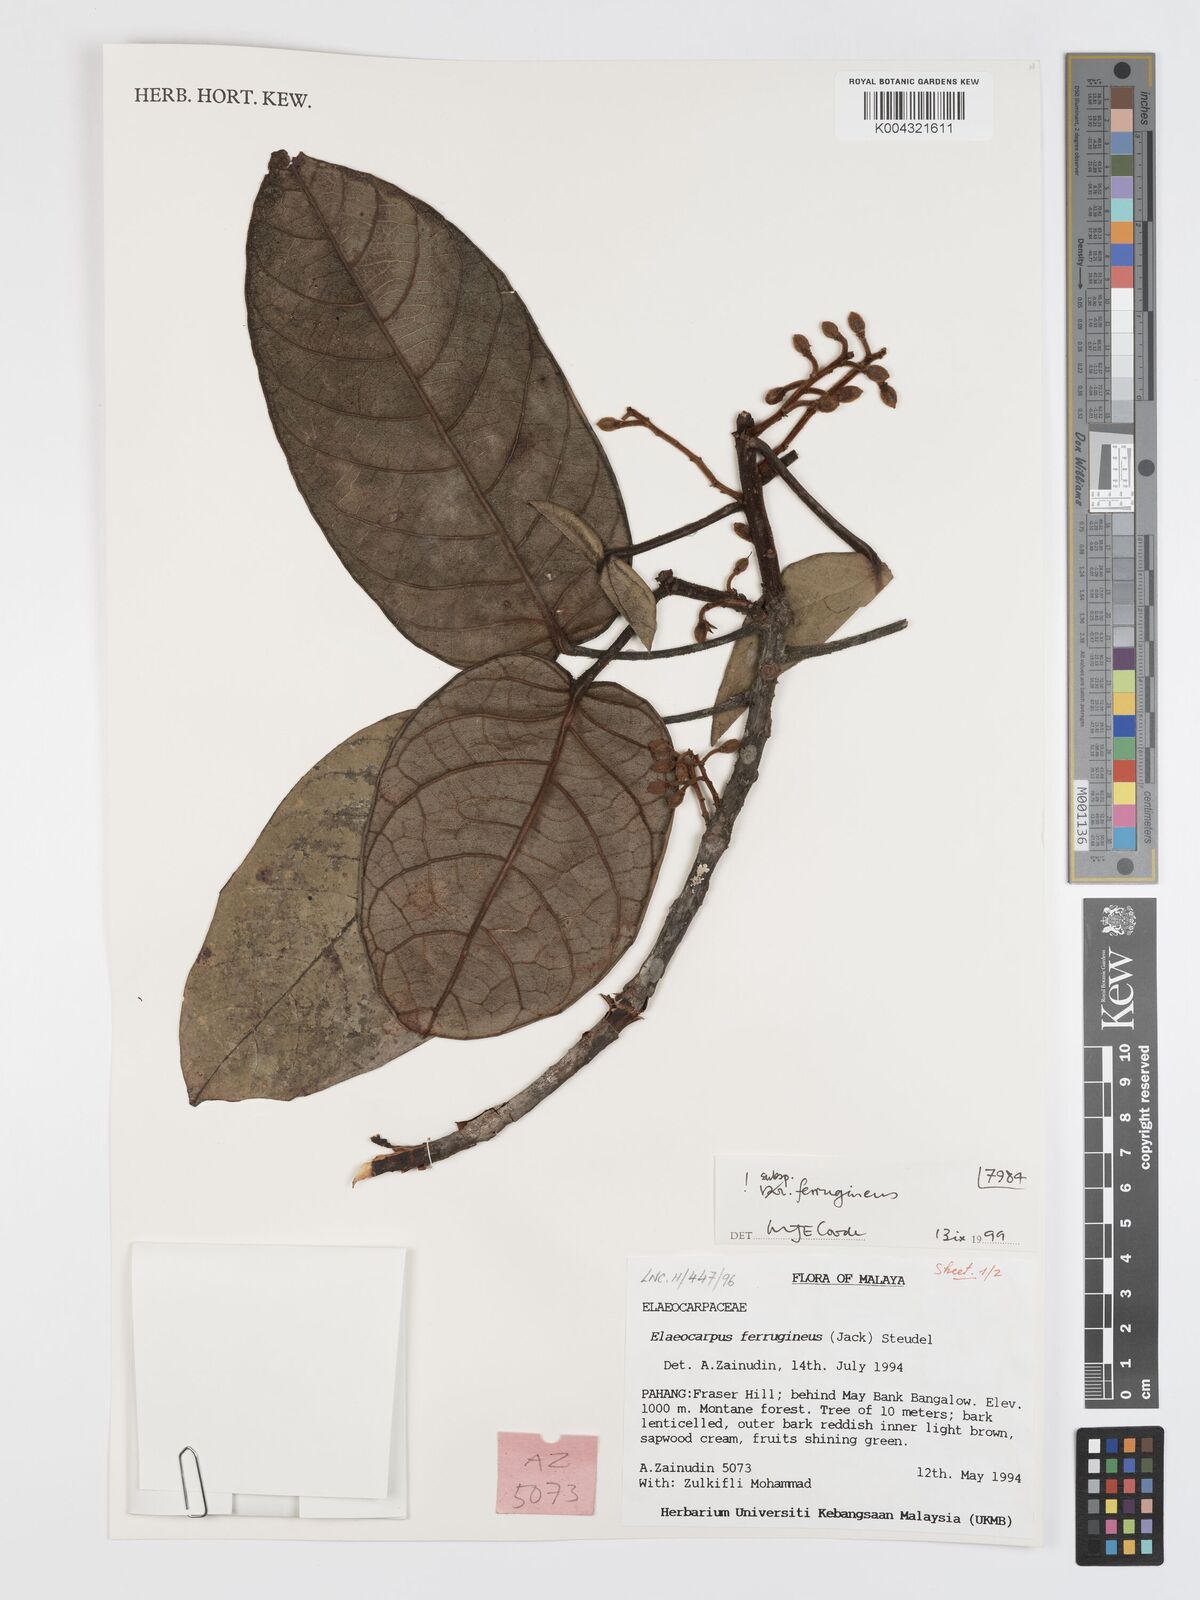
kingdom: Plantae
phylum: Tracheophyta
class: Magnoliopsida
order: Oxalidales
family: Elaeocarpaceae
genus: Elaeocarpus
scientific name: Elaeocarpus ferrugineus
